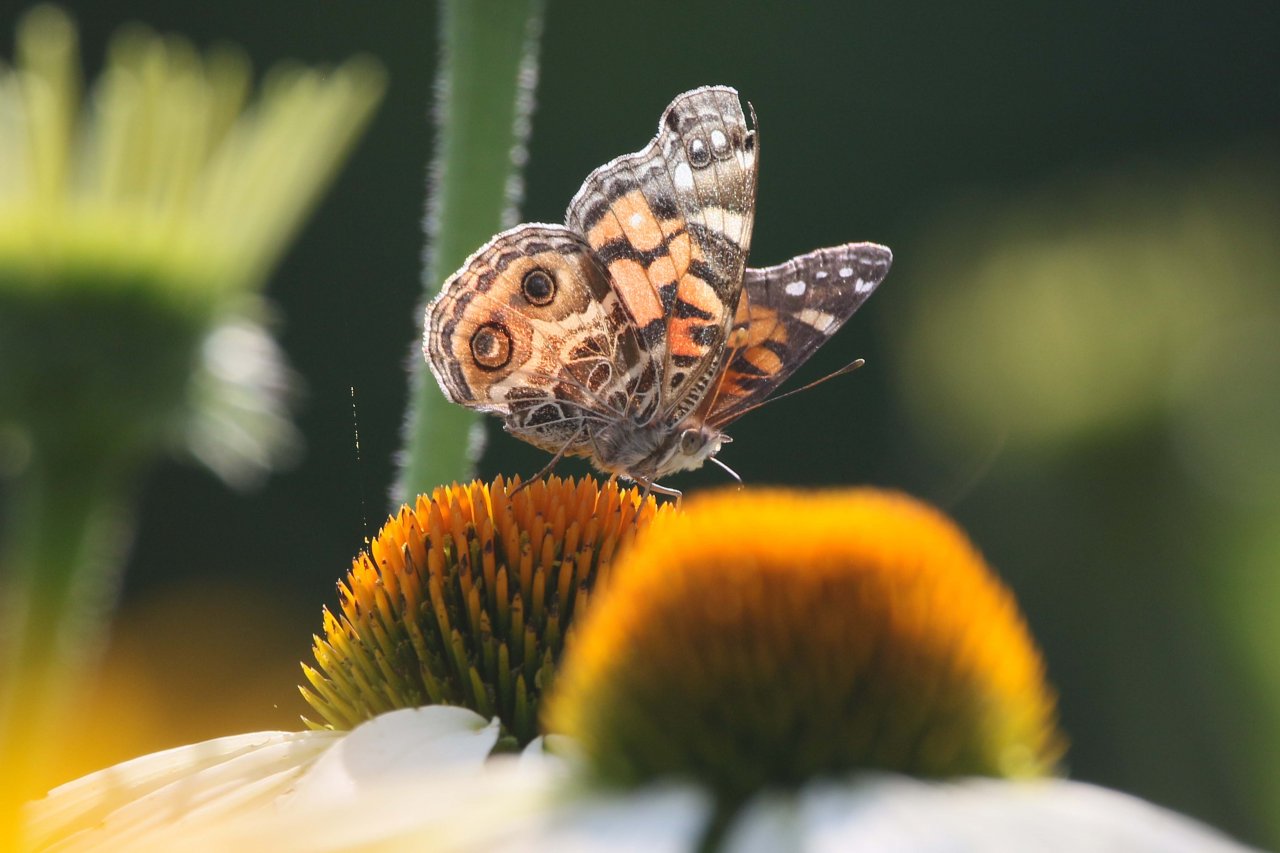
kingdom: Animalia
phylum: Arthropoda
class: Insecta
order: Lepidoptera
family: Nymphalidae
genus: Vanessa
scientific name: Vanessa virginiensis
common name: American Lady
